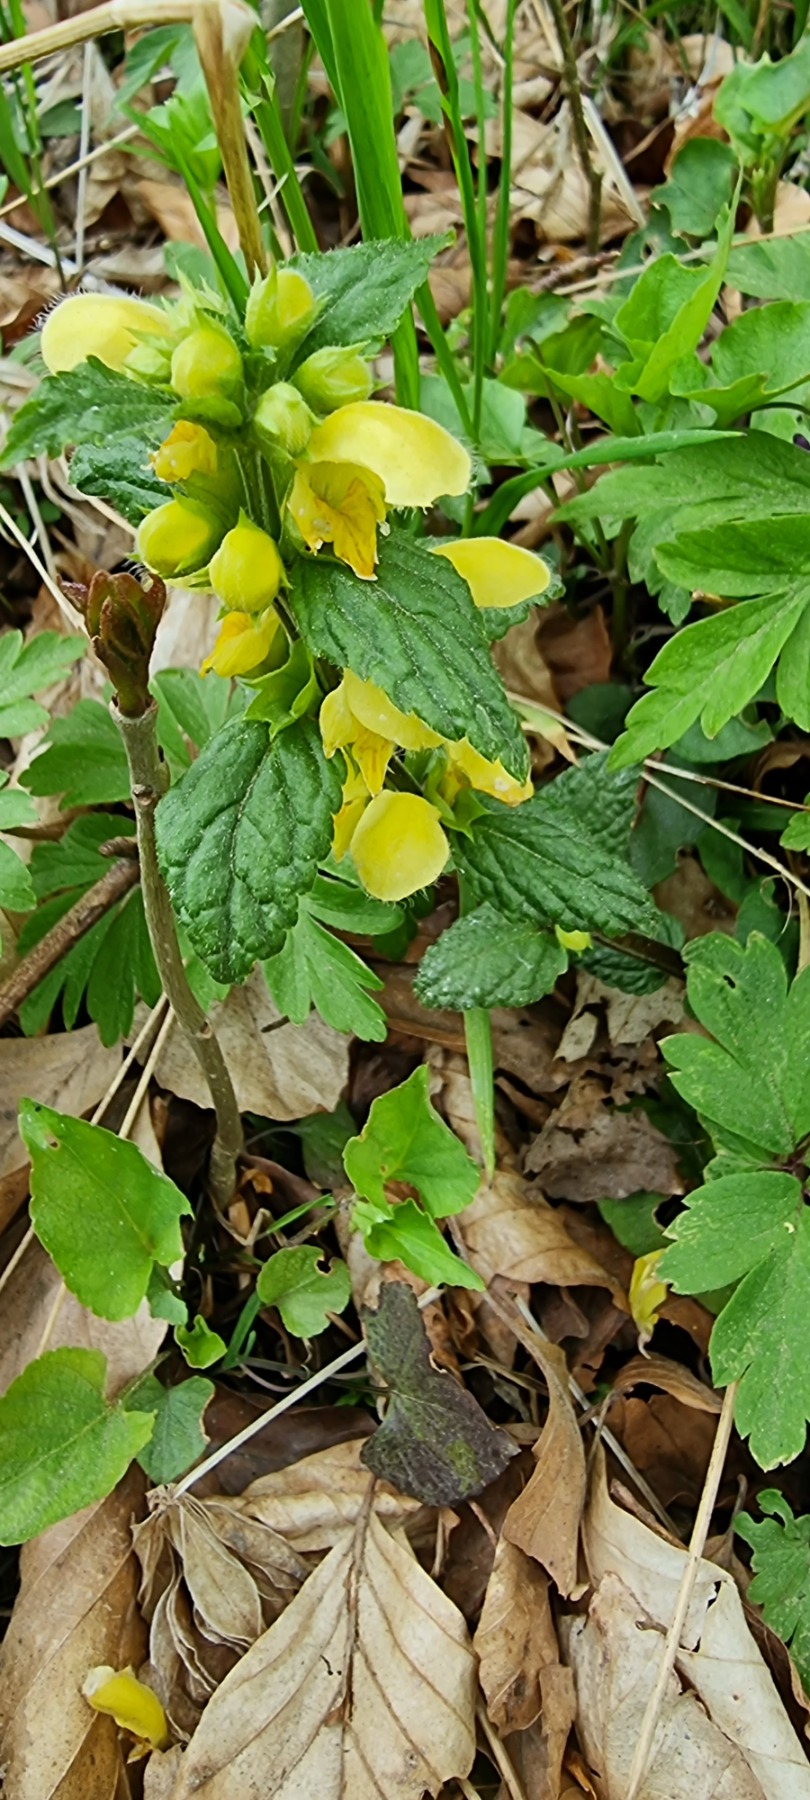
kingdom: Plantae
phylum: Tracheophyta
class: Magnoliopsida
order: Lamiales
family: Lamiaceae
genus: Lamium
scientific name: Lamium galeobdolon
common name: Almindelig guldnælde
